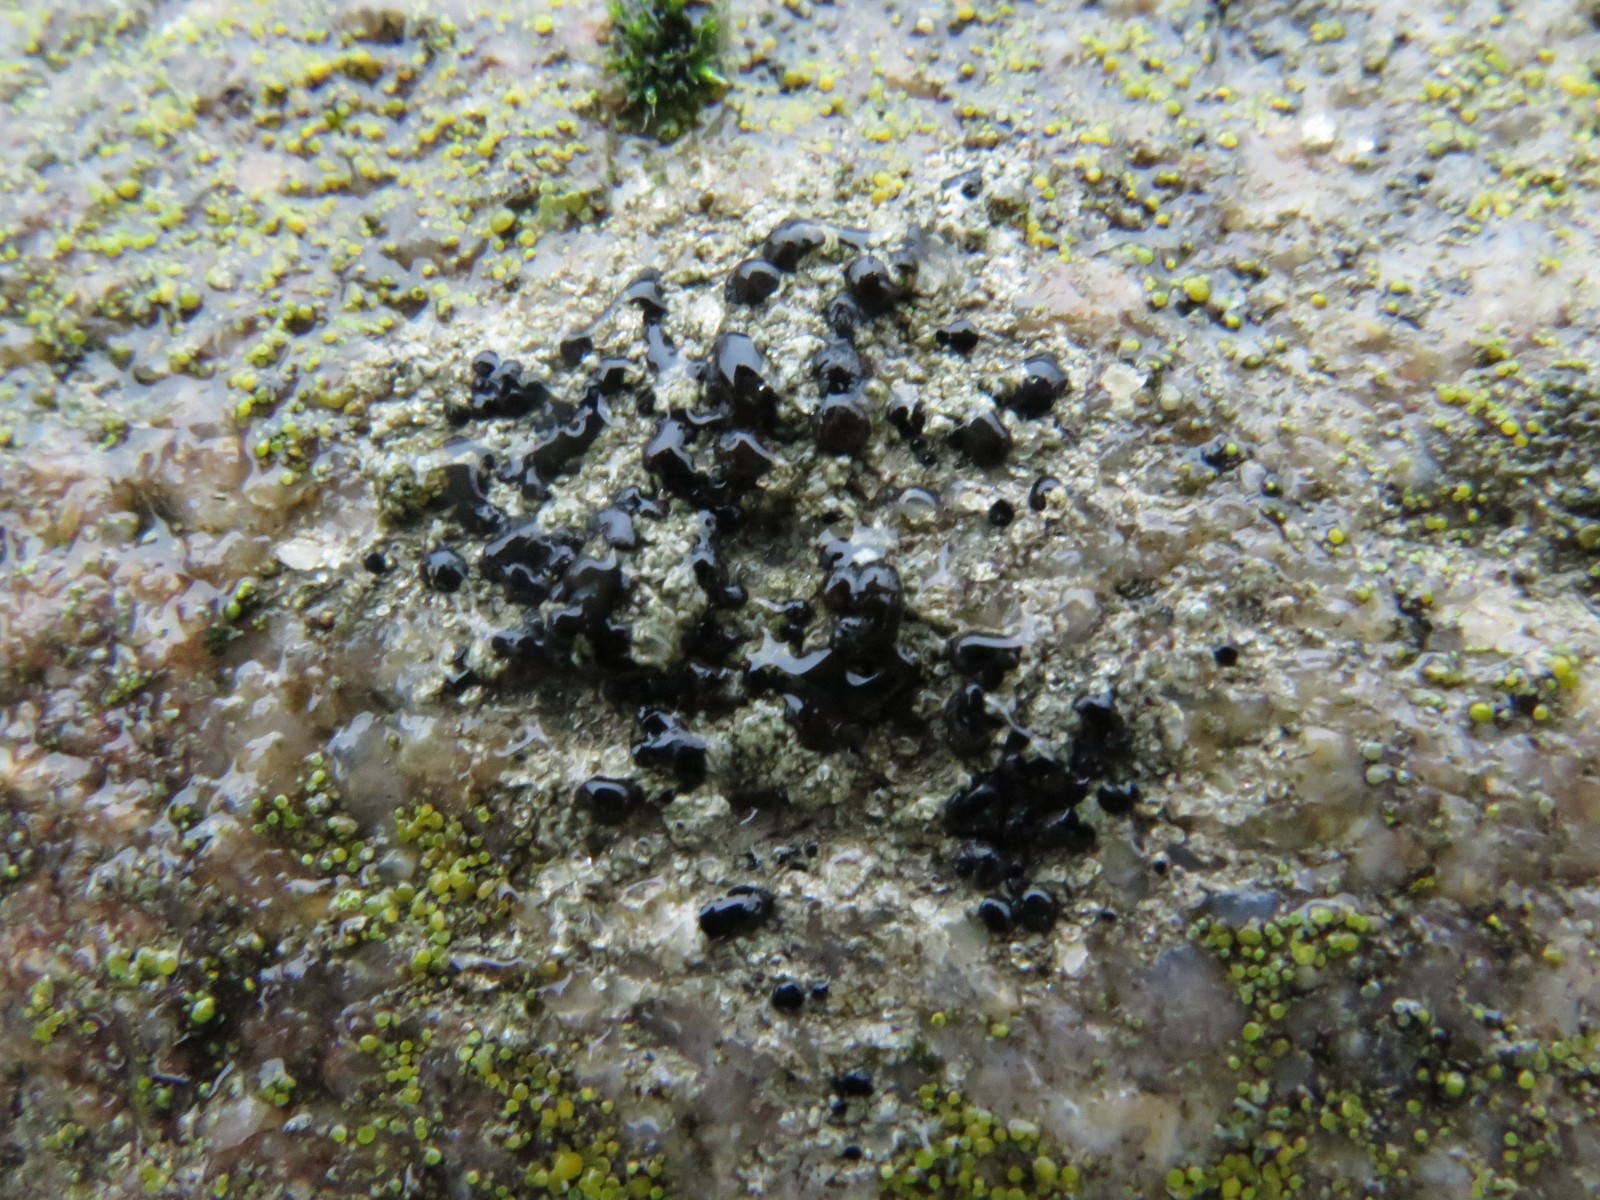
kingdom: Fungi
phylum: Ascomycota
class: Lecanoromycetes
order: Lecanorales
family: Lecanoraceae
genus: Lecidella
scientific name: Lecidella scabra
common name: skurvet skivelav
